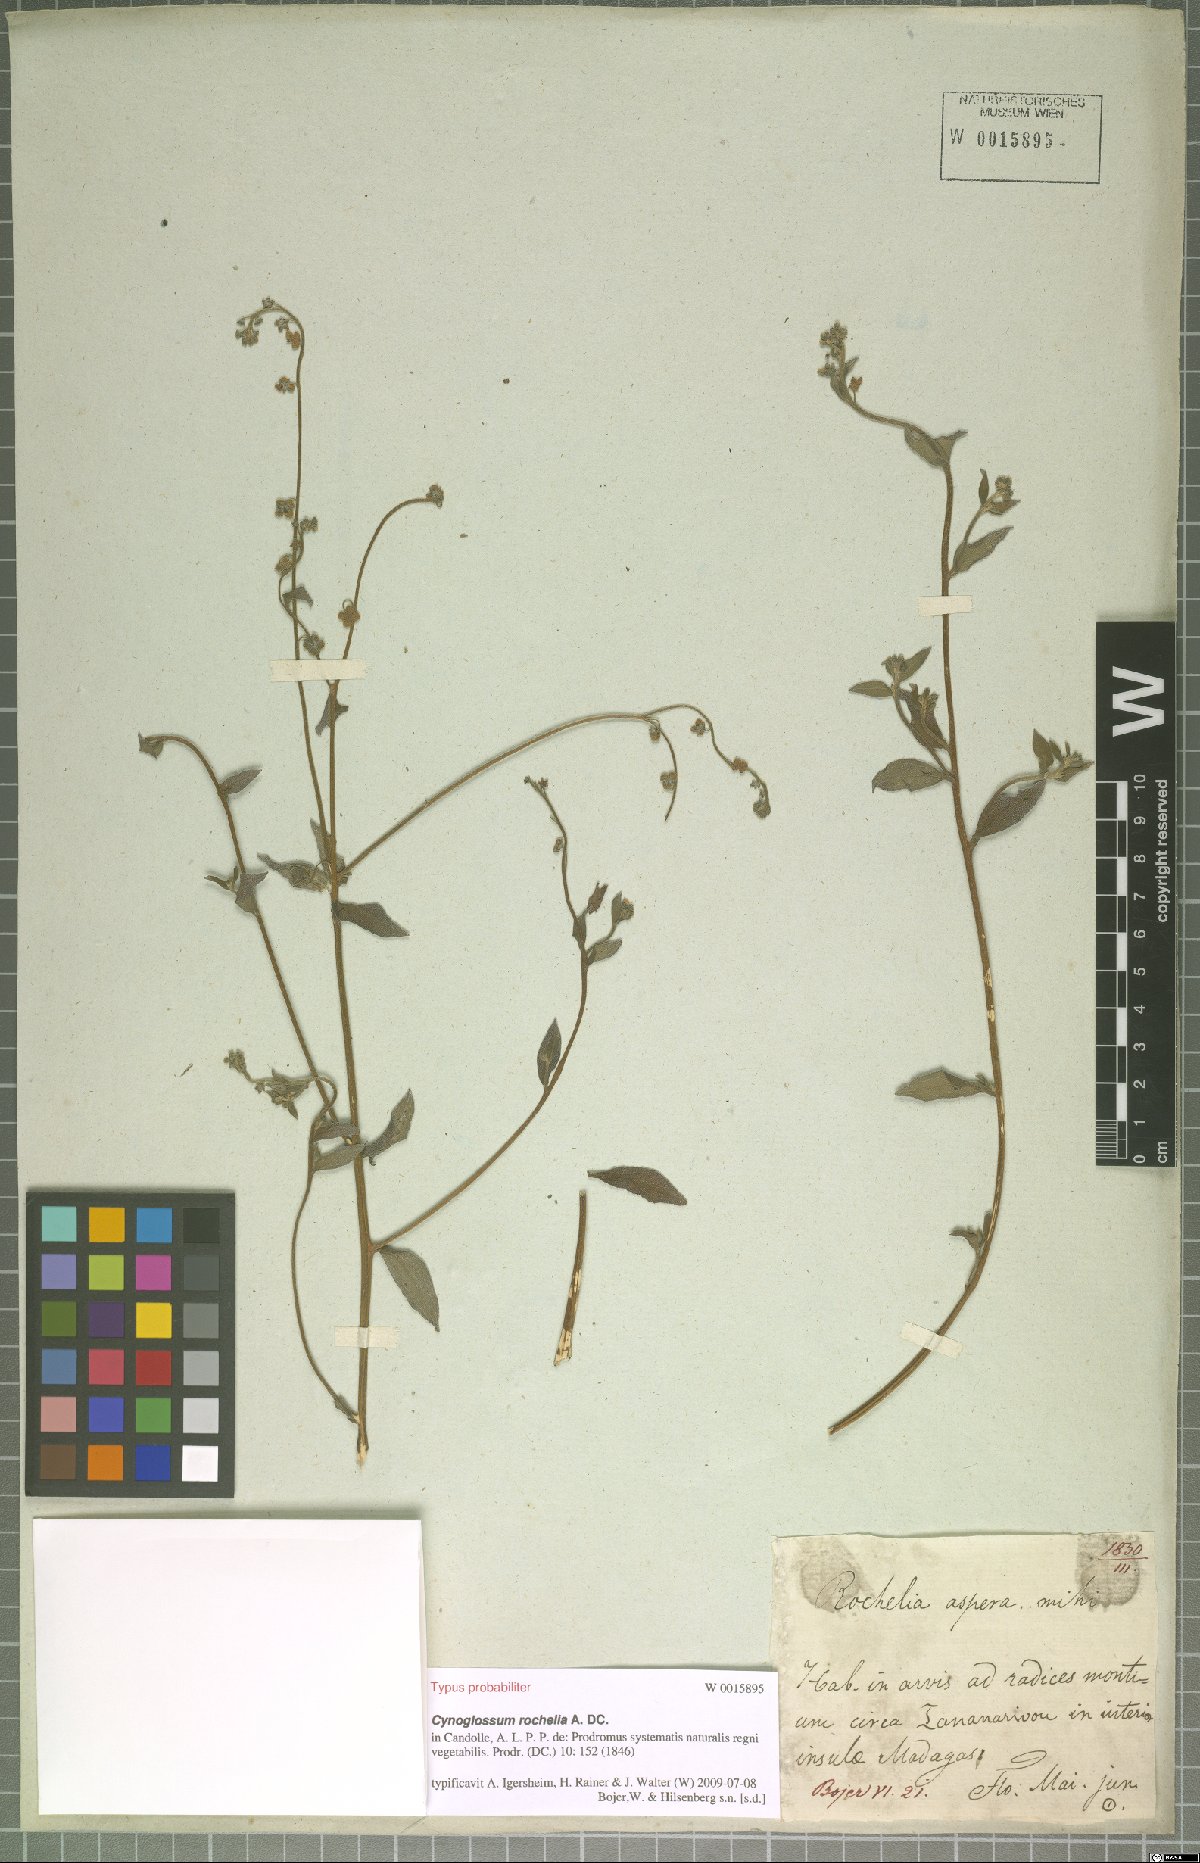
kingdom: Plantae
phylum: Tracheophyta
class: Magnoliopsida
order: Boraginales
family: Boraginaceae
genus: Paracynoglossum
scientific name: Paracynoglossum lanceolatum
